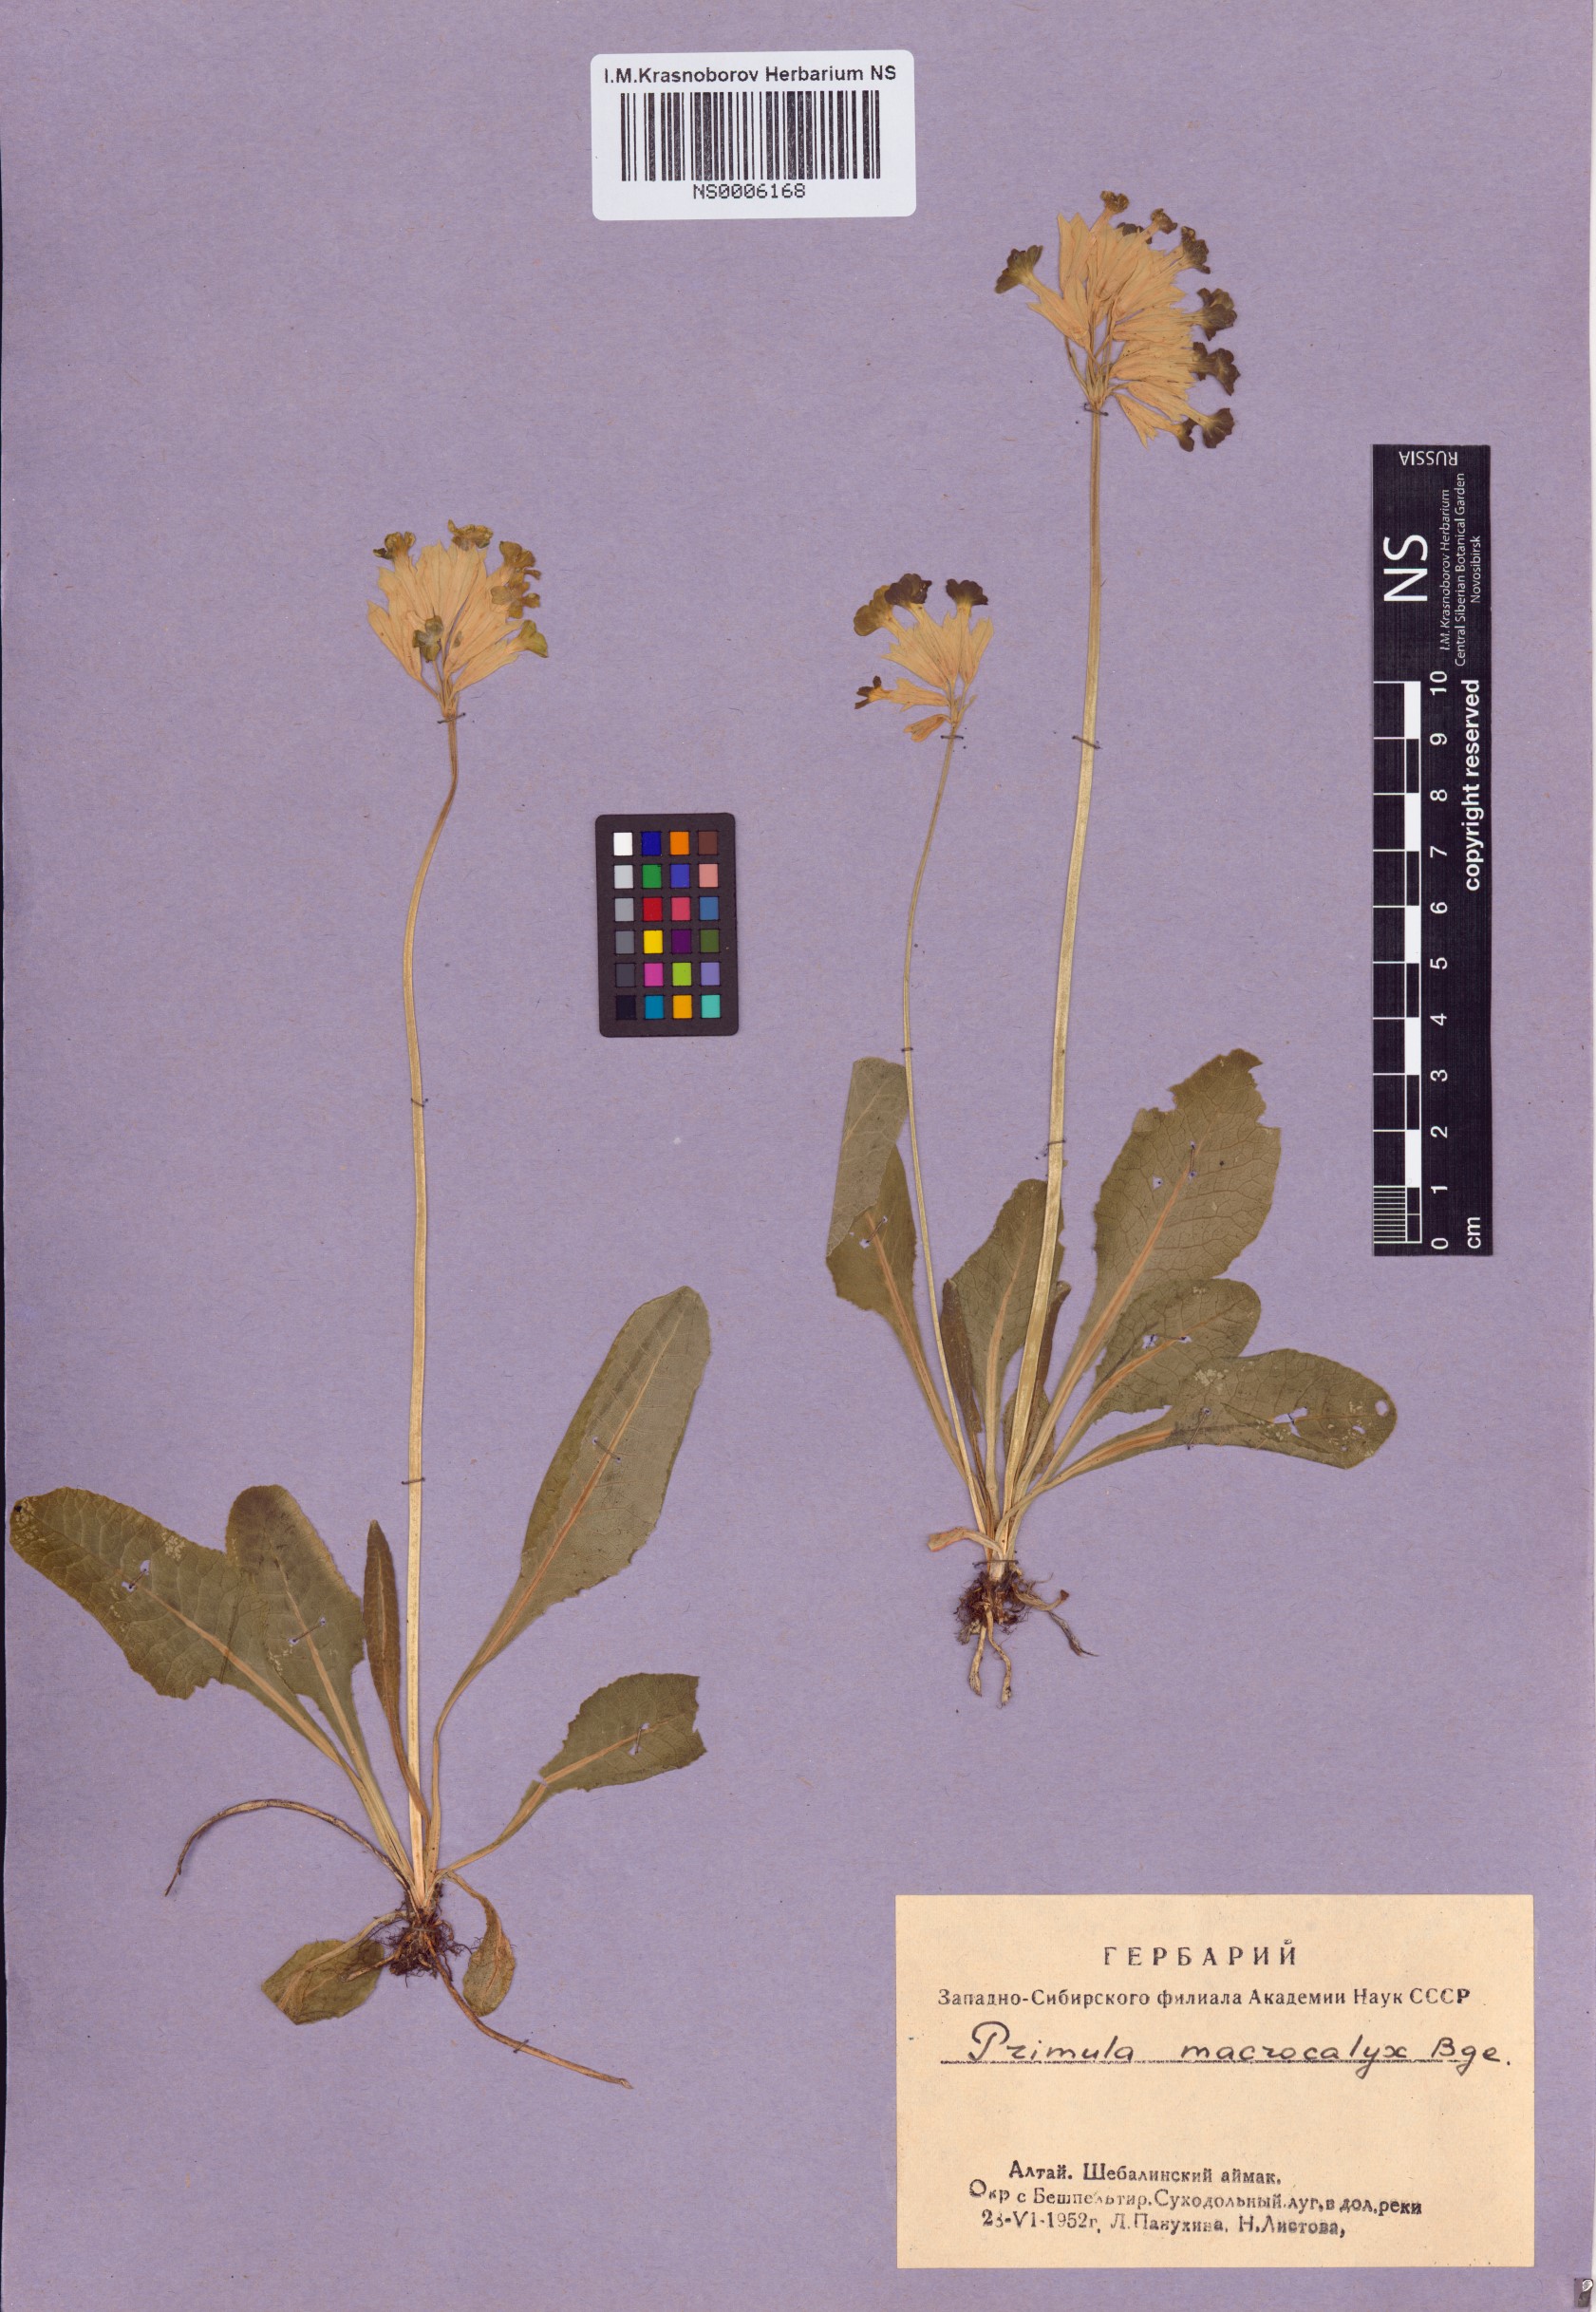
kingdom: Plantae
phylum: Tracheophyta
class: Magnoliopsida
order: Ericales
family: Primulaceae
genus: Primula
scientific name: Primula veris
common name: Cowslip
